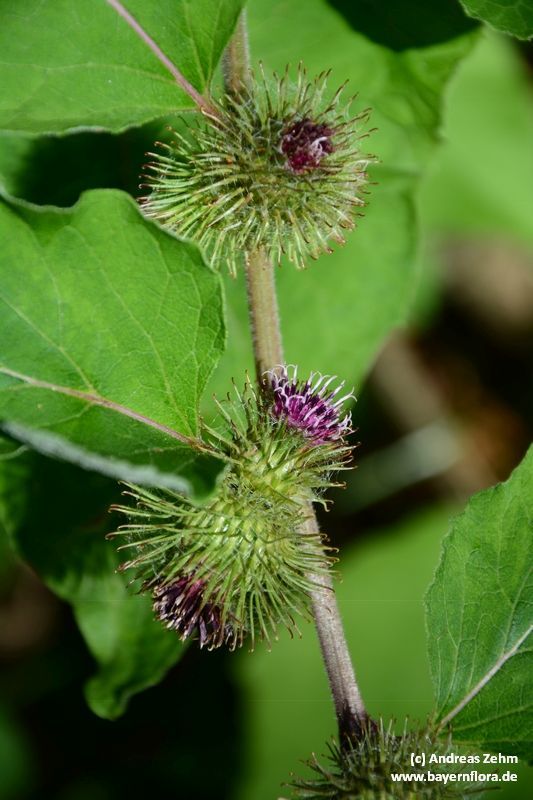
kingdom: Plantae
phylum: Tracheophyta
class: Magnoliopsida
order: Asterales
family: Asteraceae
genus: Arctium
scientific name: Arctium nemorosum
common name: Wood burdock
